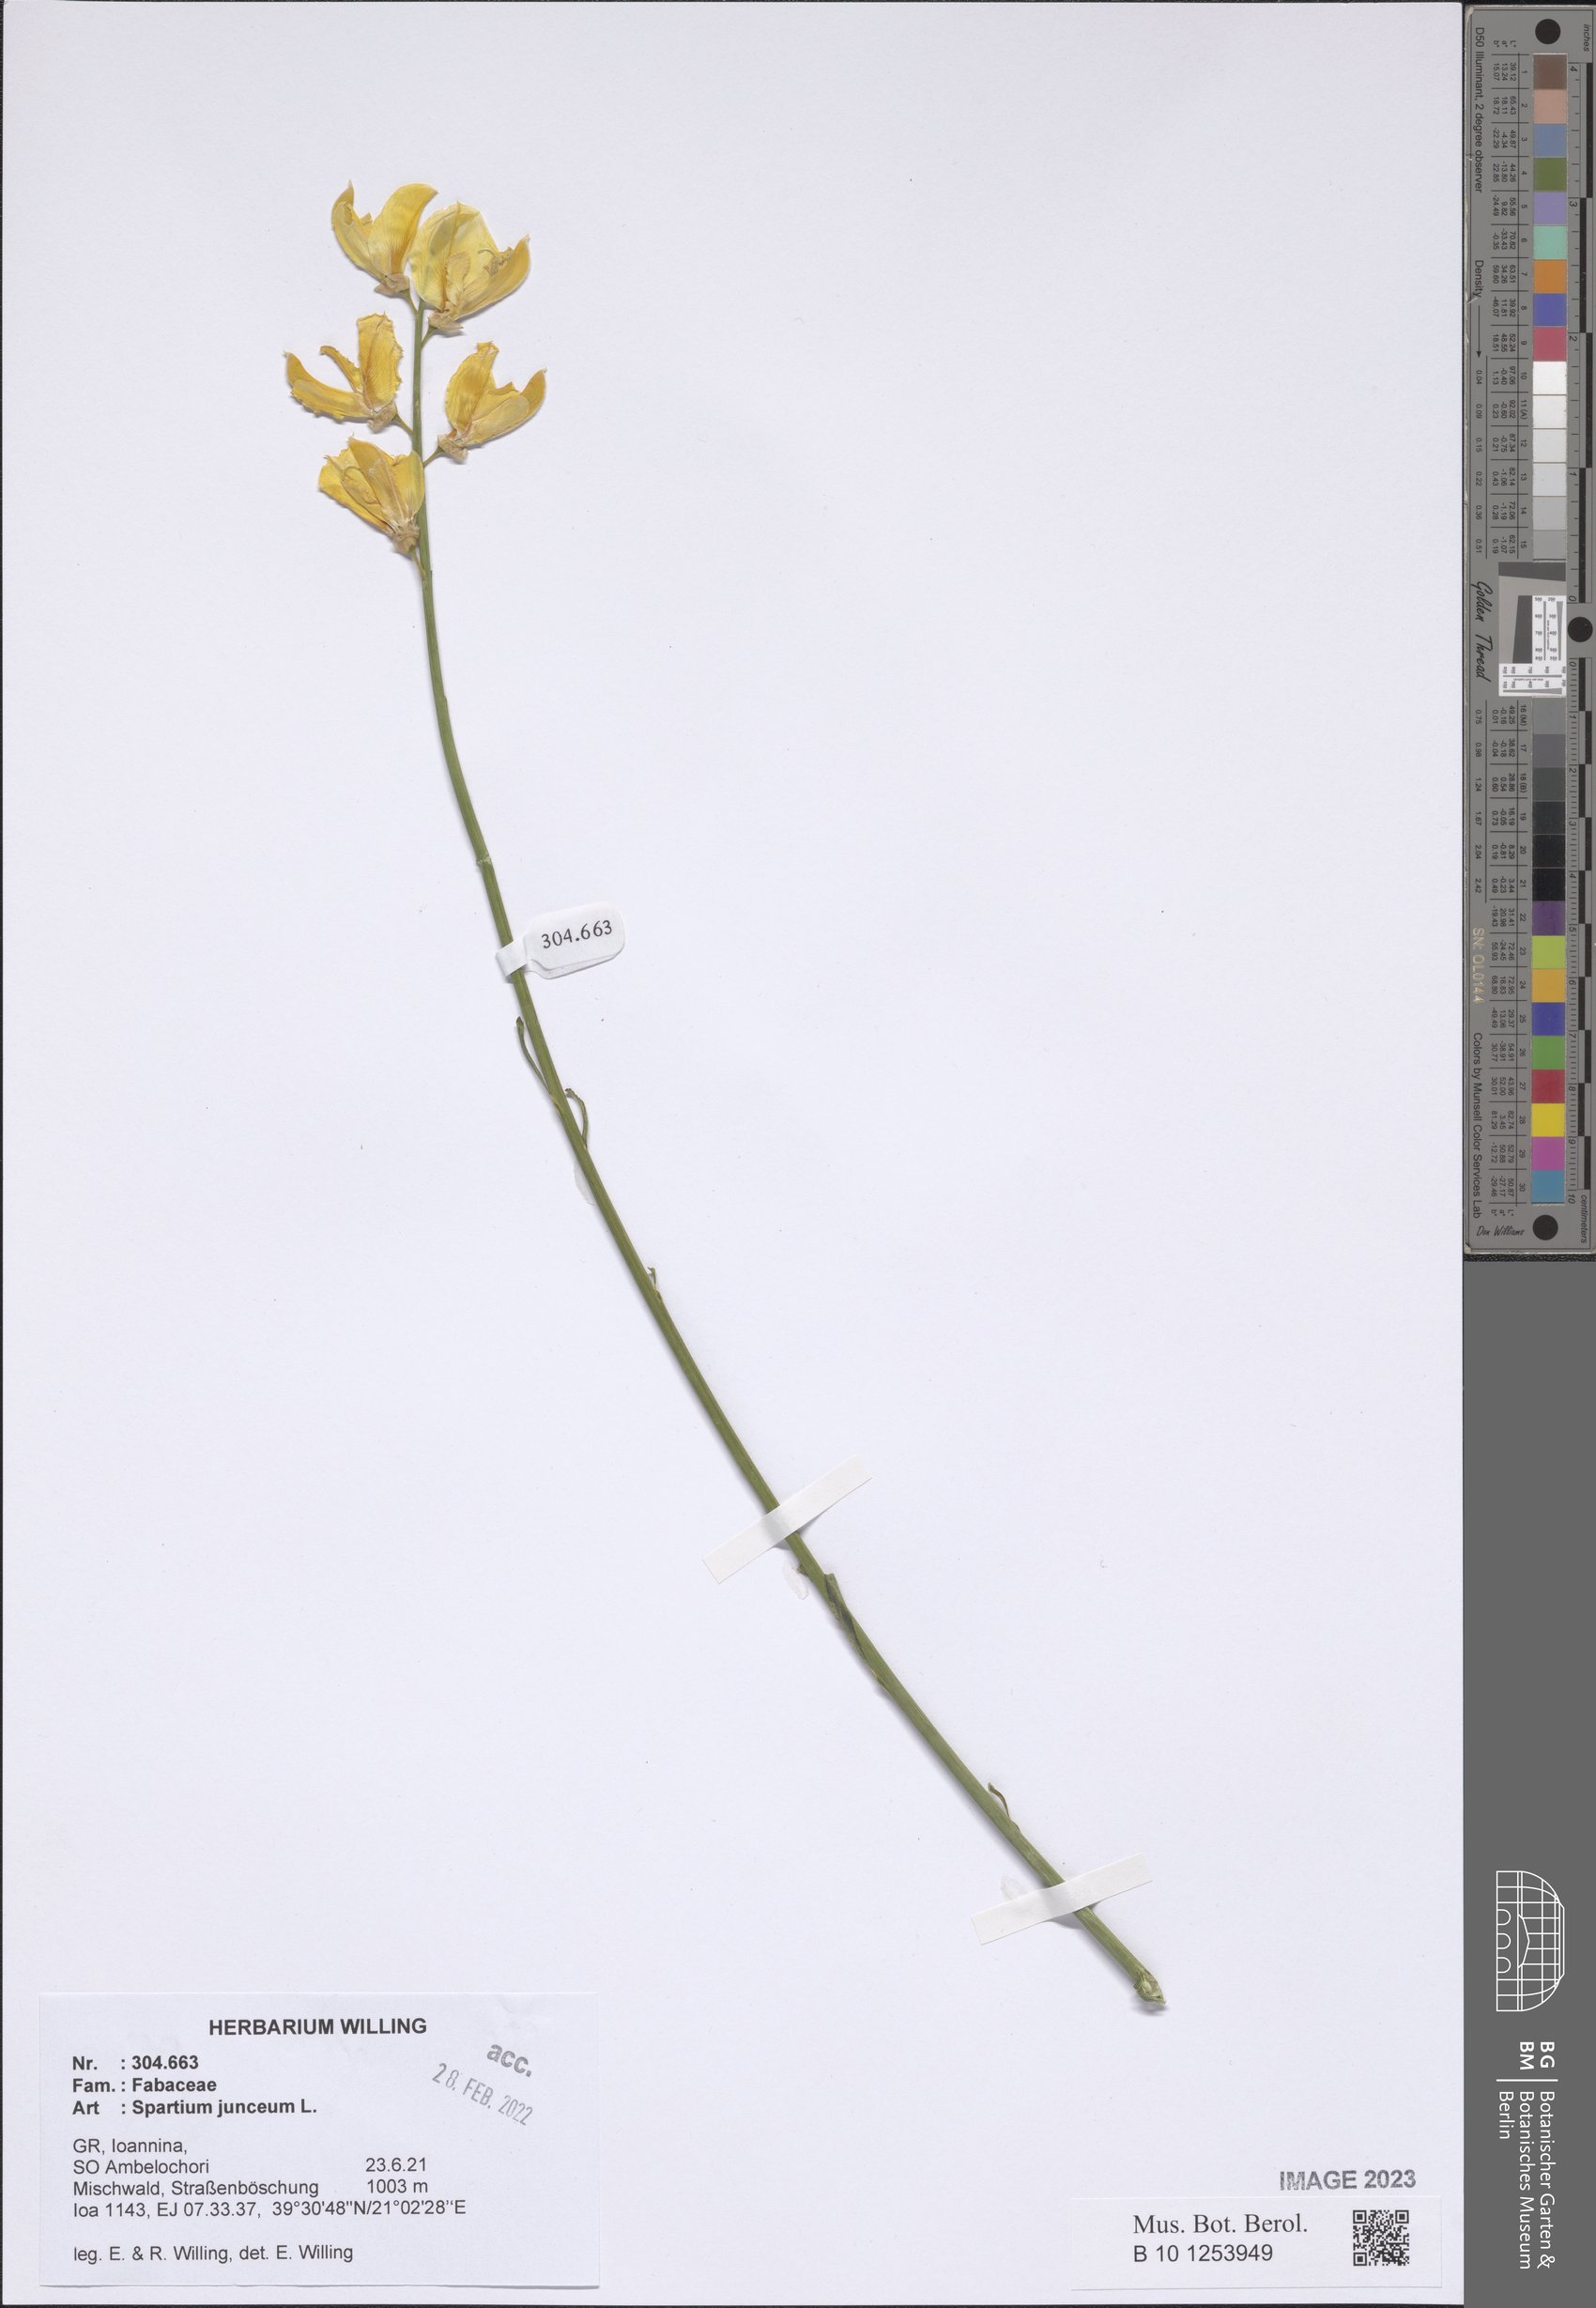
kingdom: Plantae
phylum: Tracheophyta
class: Magnoliopsida
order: Fabales
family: Fabaceae
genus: Spartium
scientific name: Spartium junceum
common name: Spanish broom
